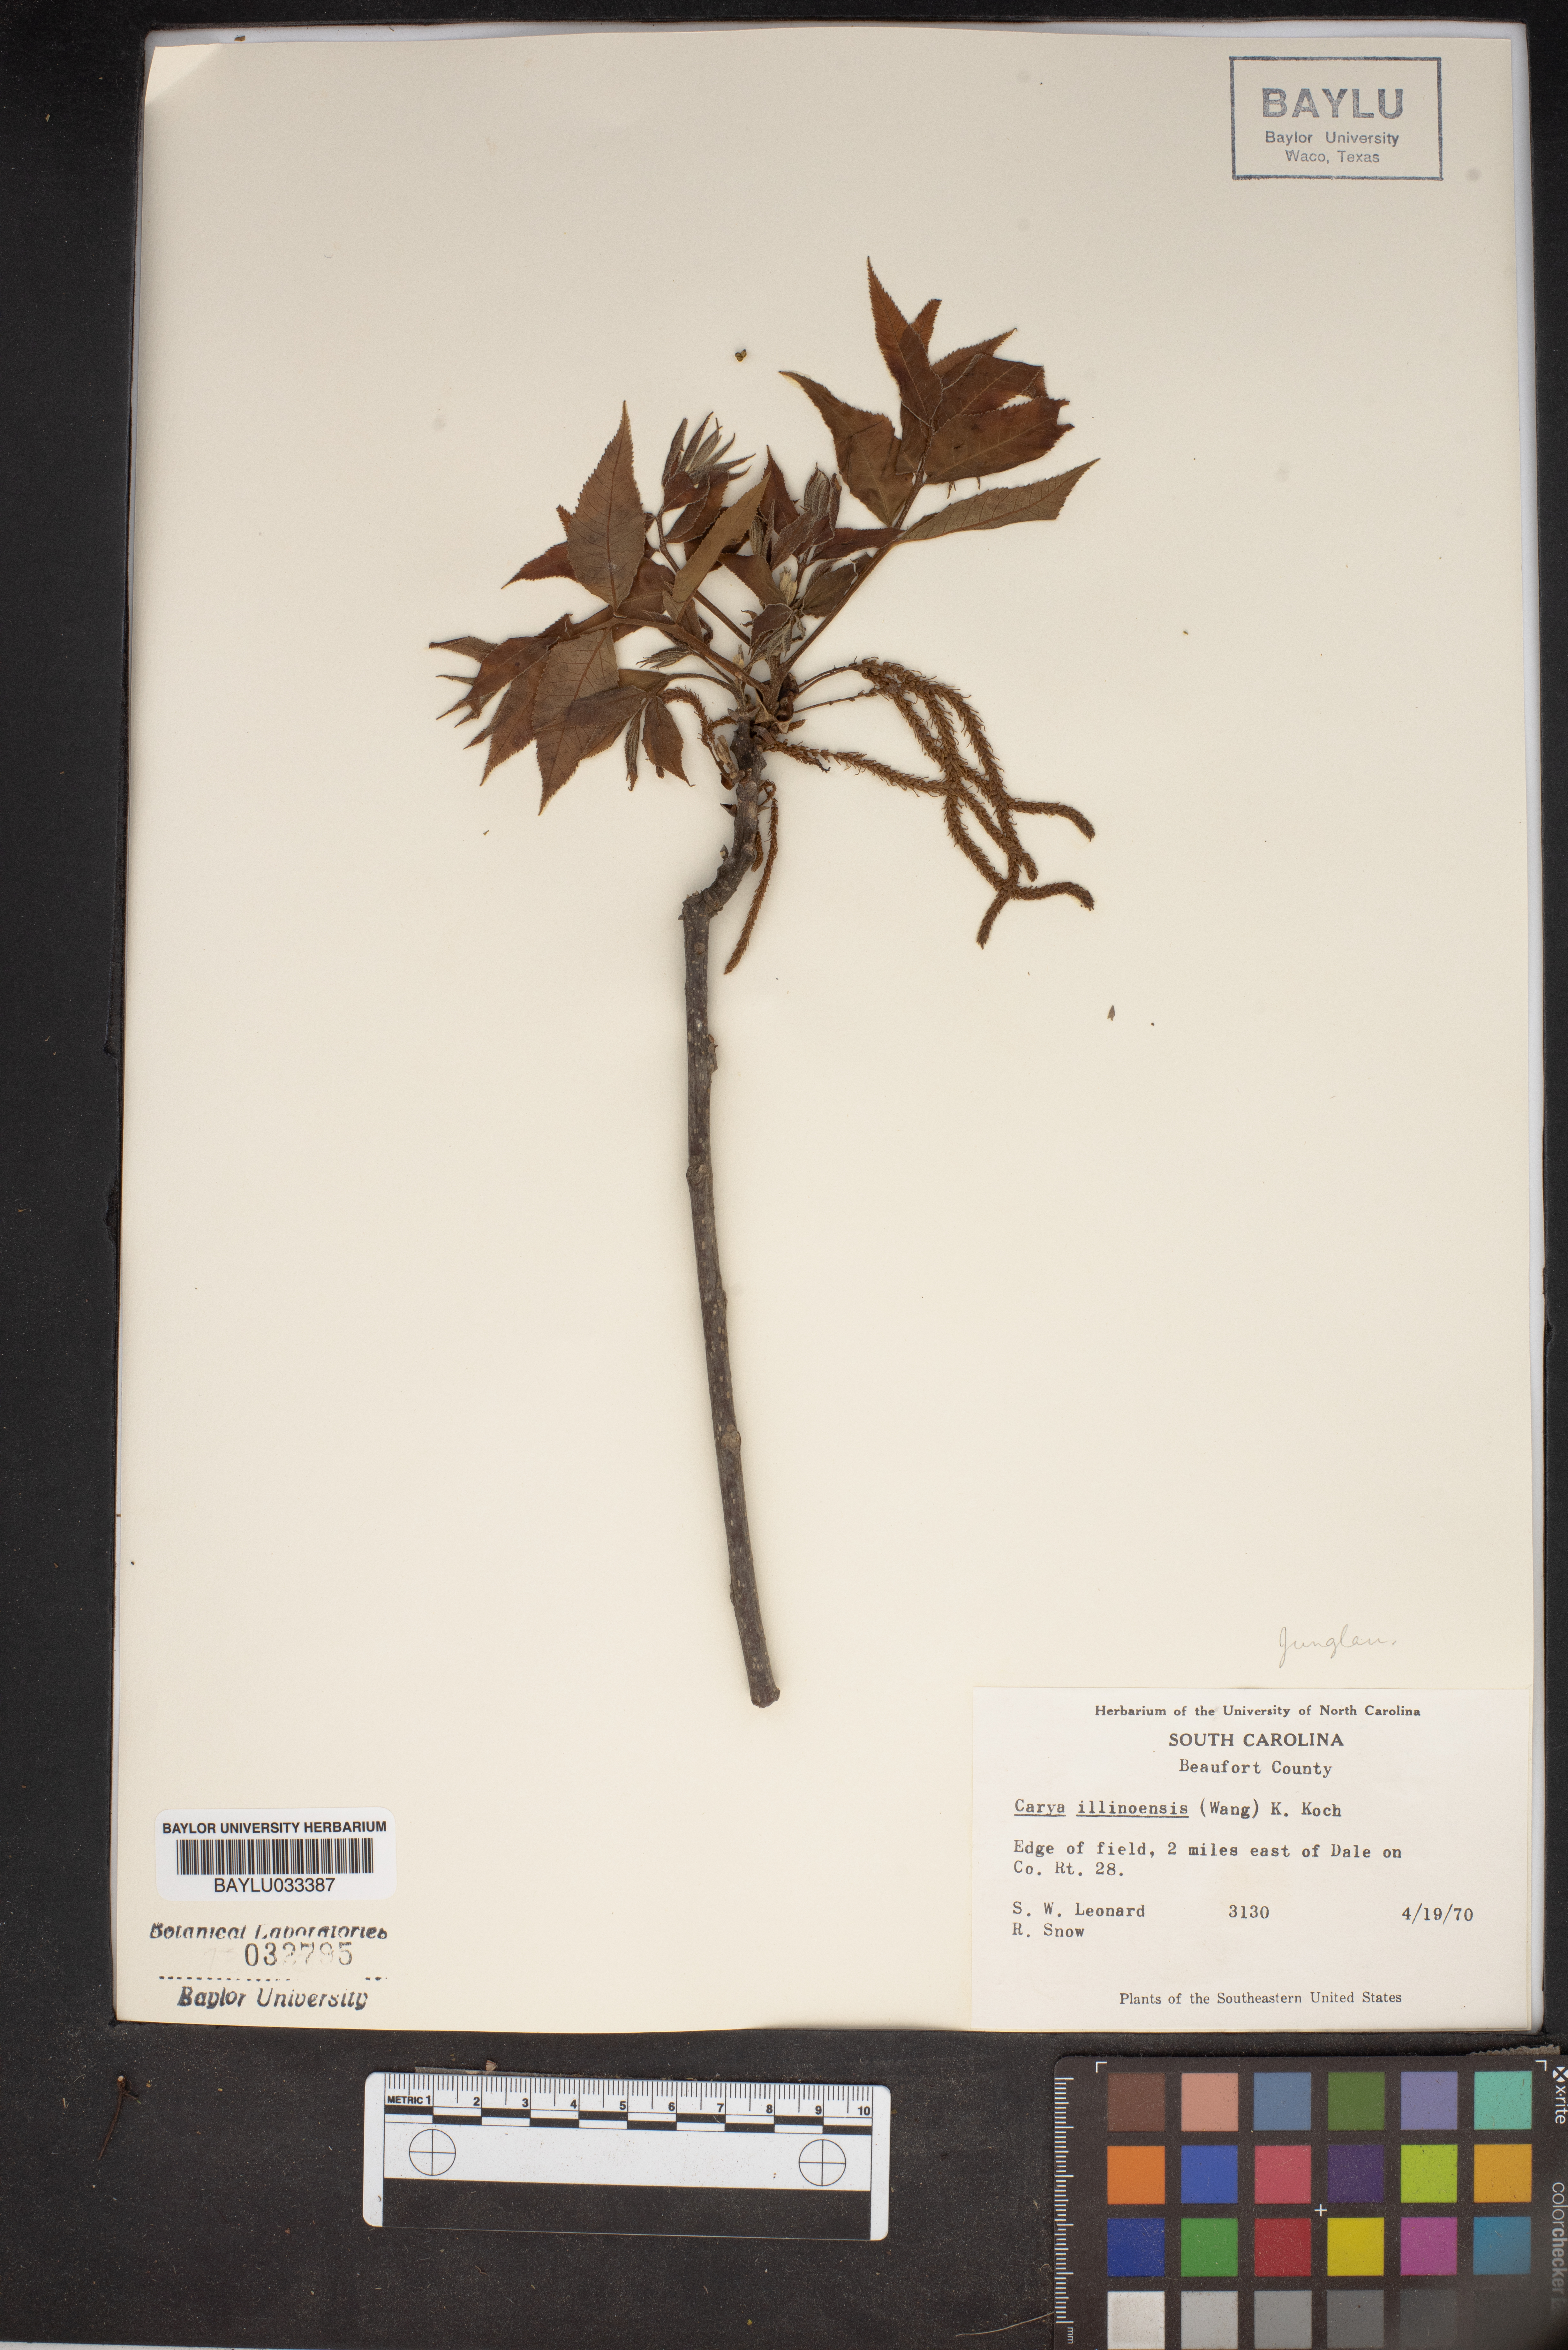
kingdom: Plantae
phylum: Tracheophyta
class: Magnoliopsida
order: Fagales
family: Juglandaceae
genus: Carya
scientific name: Carya
